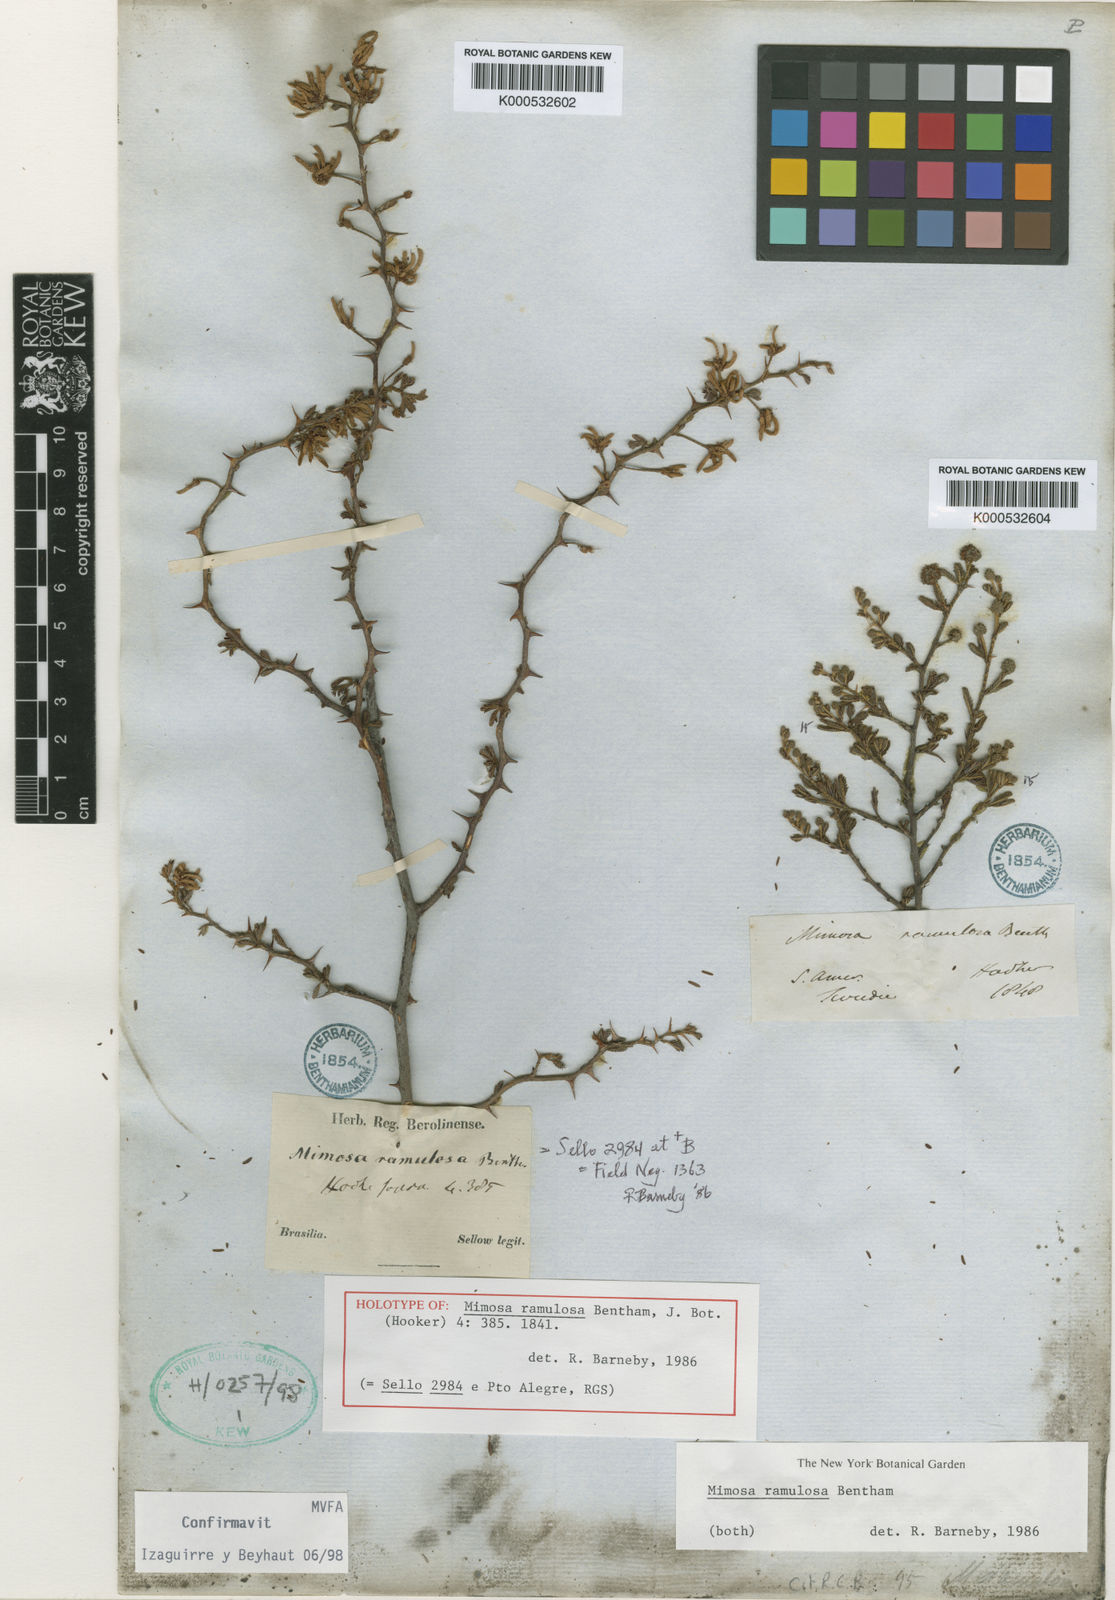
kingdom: Plantae
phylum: Tracheophyta
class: Magnoliopsida
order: Fabales
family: Fabaceae
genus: Mimosa
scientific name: Mimosa ramulosa
